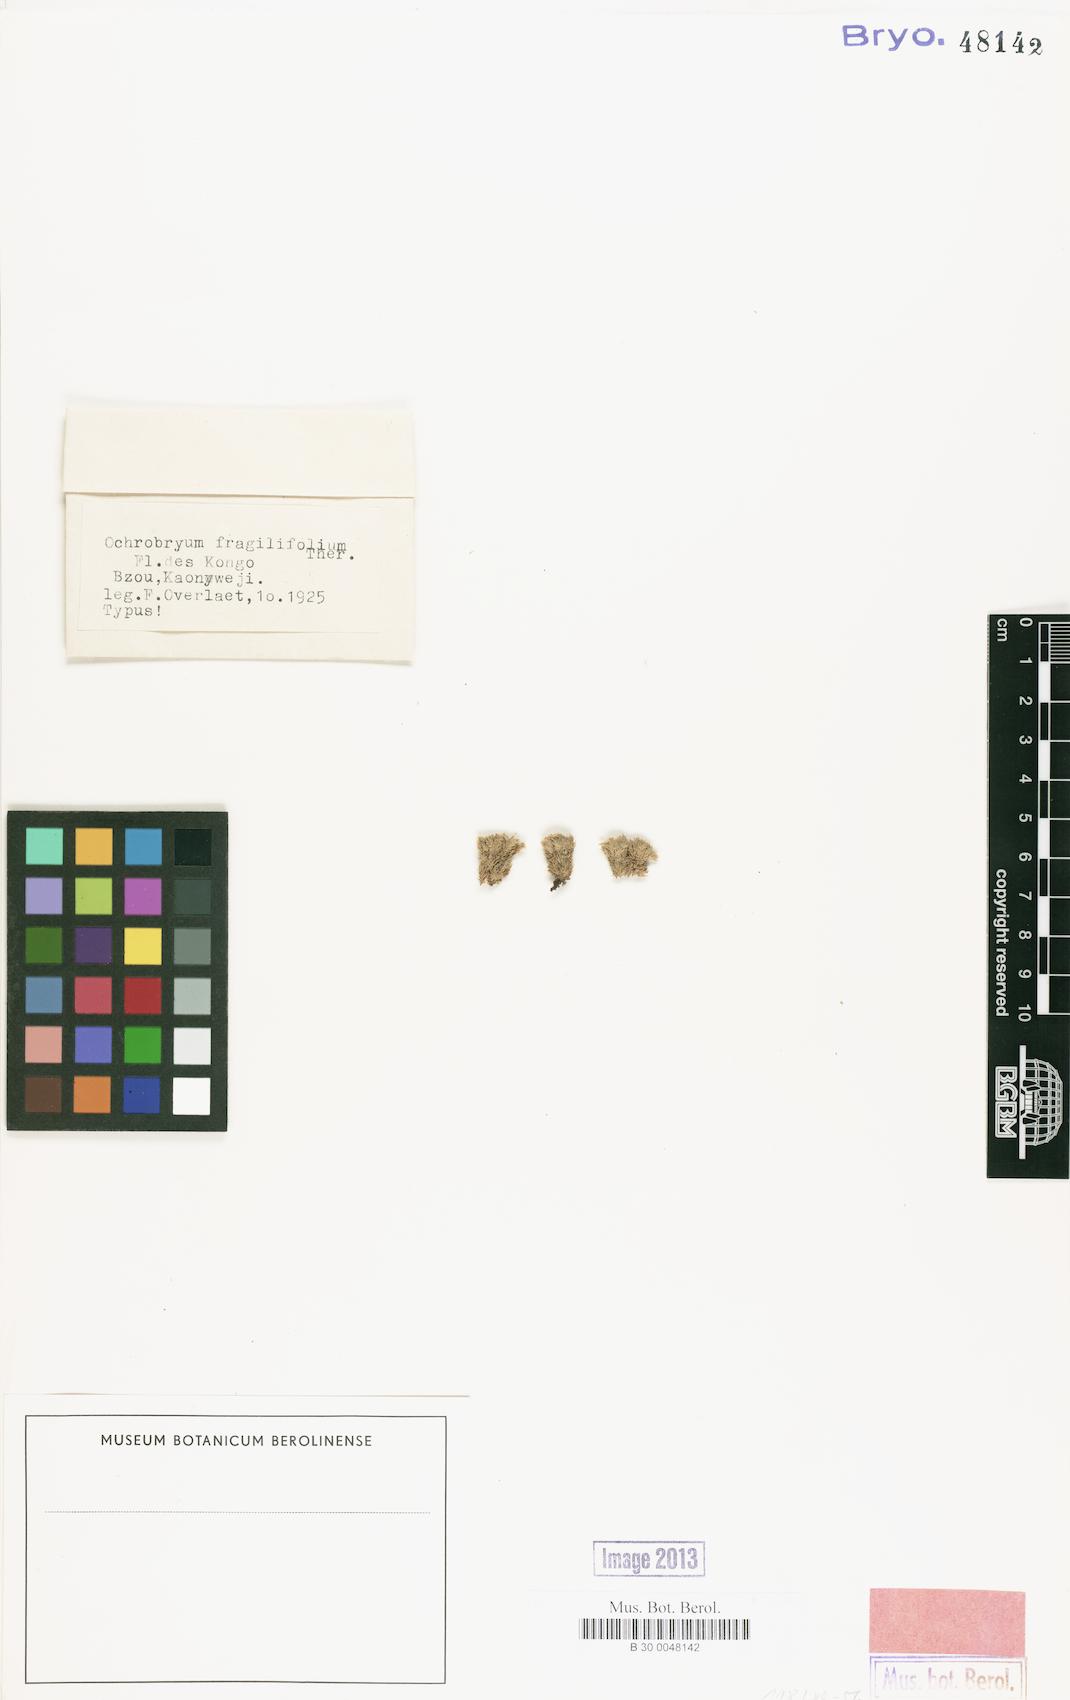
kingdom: Plantae
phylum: Bryophyta
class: Bryopsida
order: Dicranales
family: Leucobryaceae
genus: Ochrobryum
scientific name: Ochrobryum
